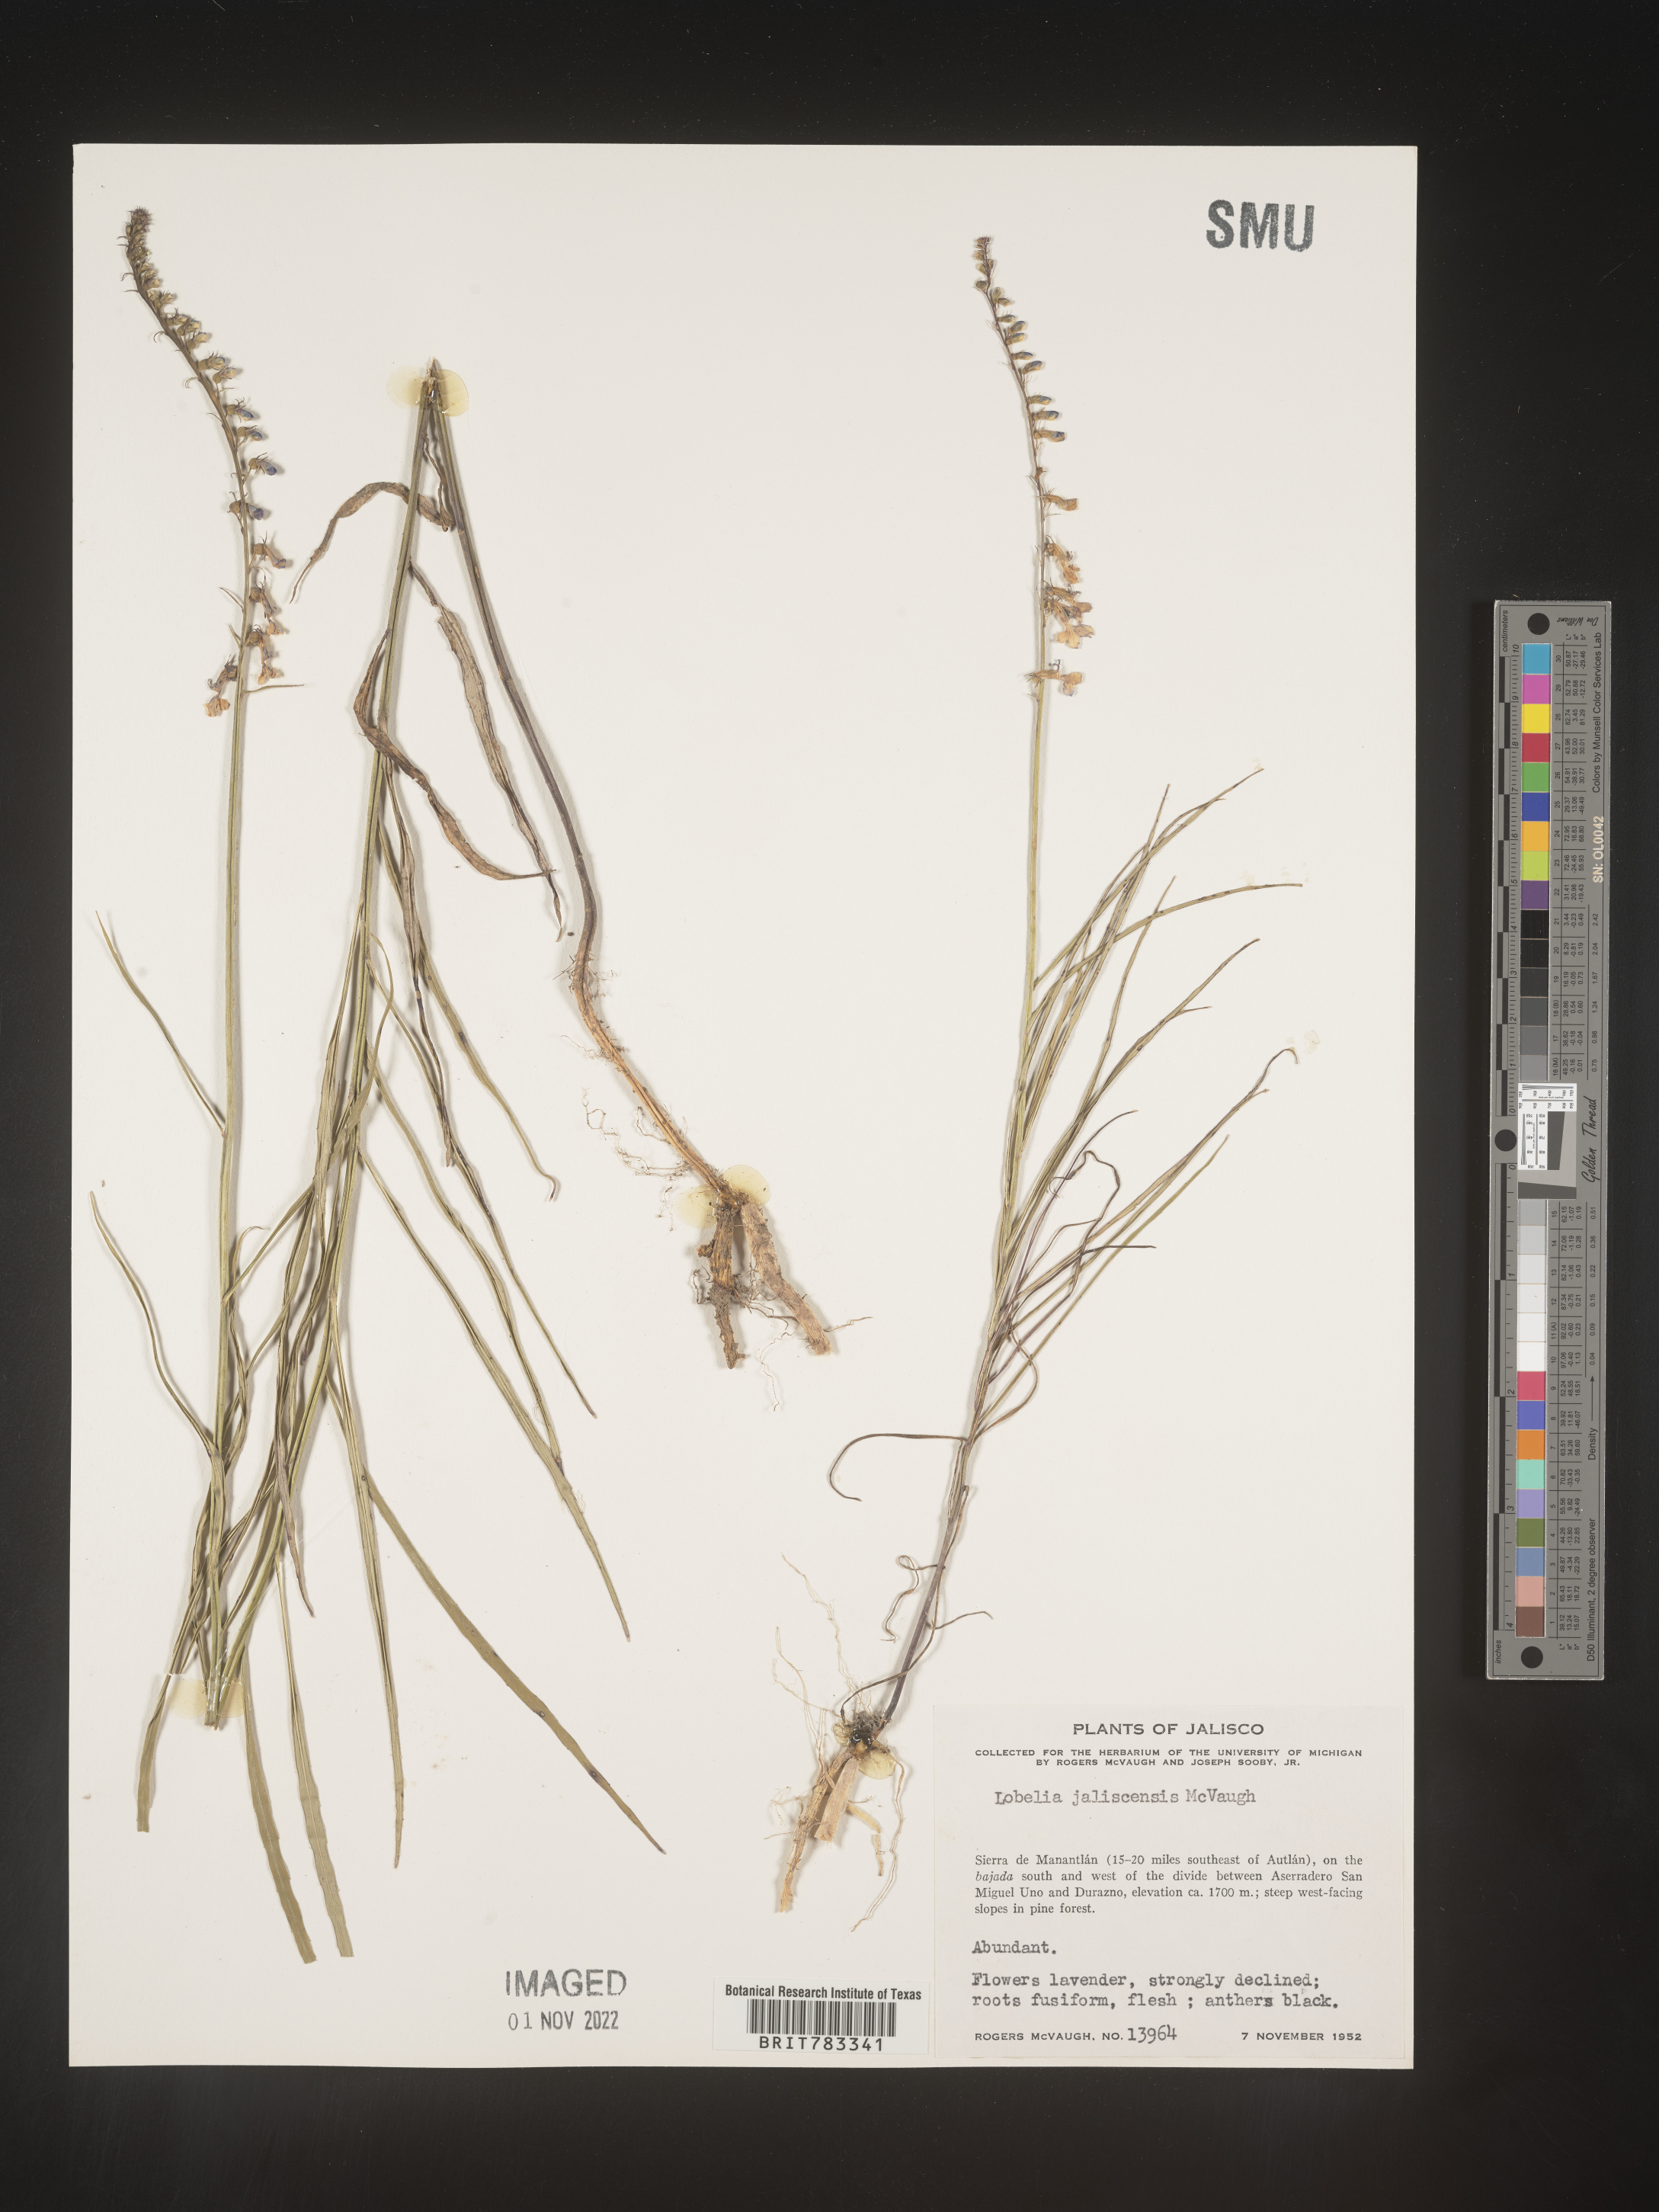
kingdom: Plantae
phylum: Tracheophyta
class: Magnoliopsida
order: Asterales
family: Campanulaceae
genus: Lobelia
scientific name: Lobelia
